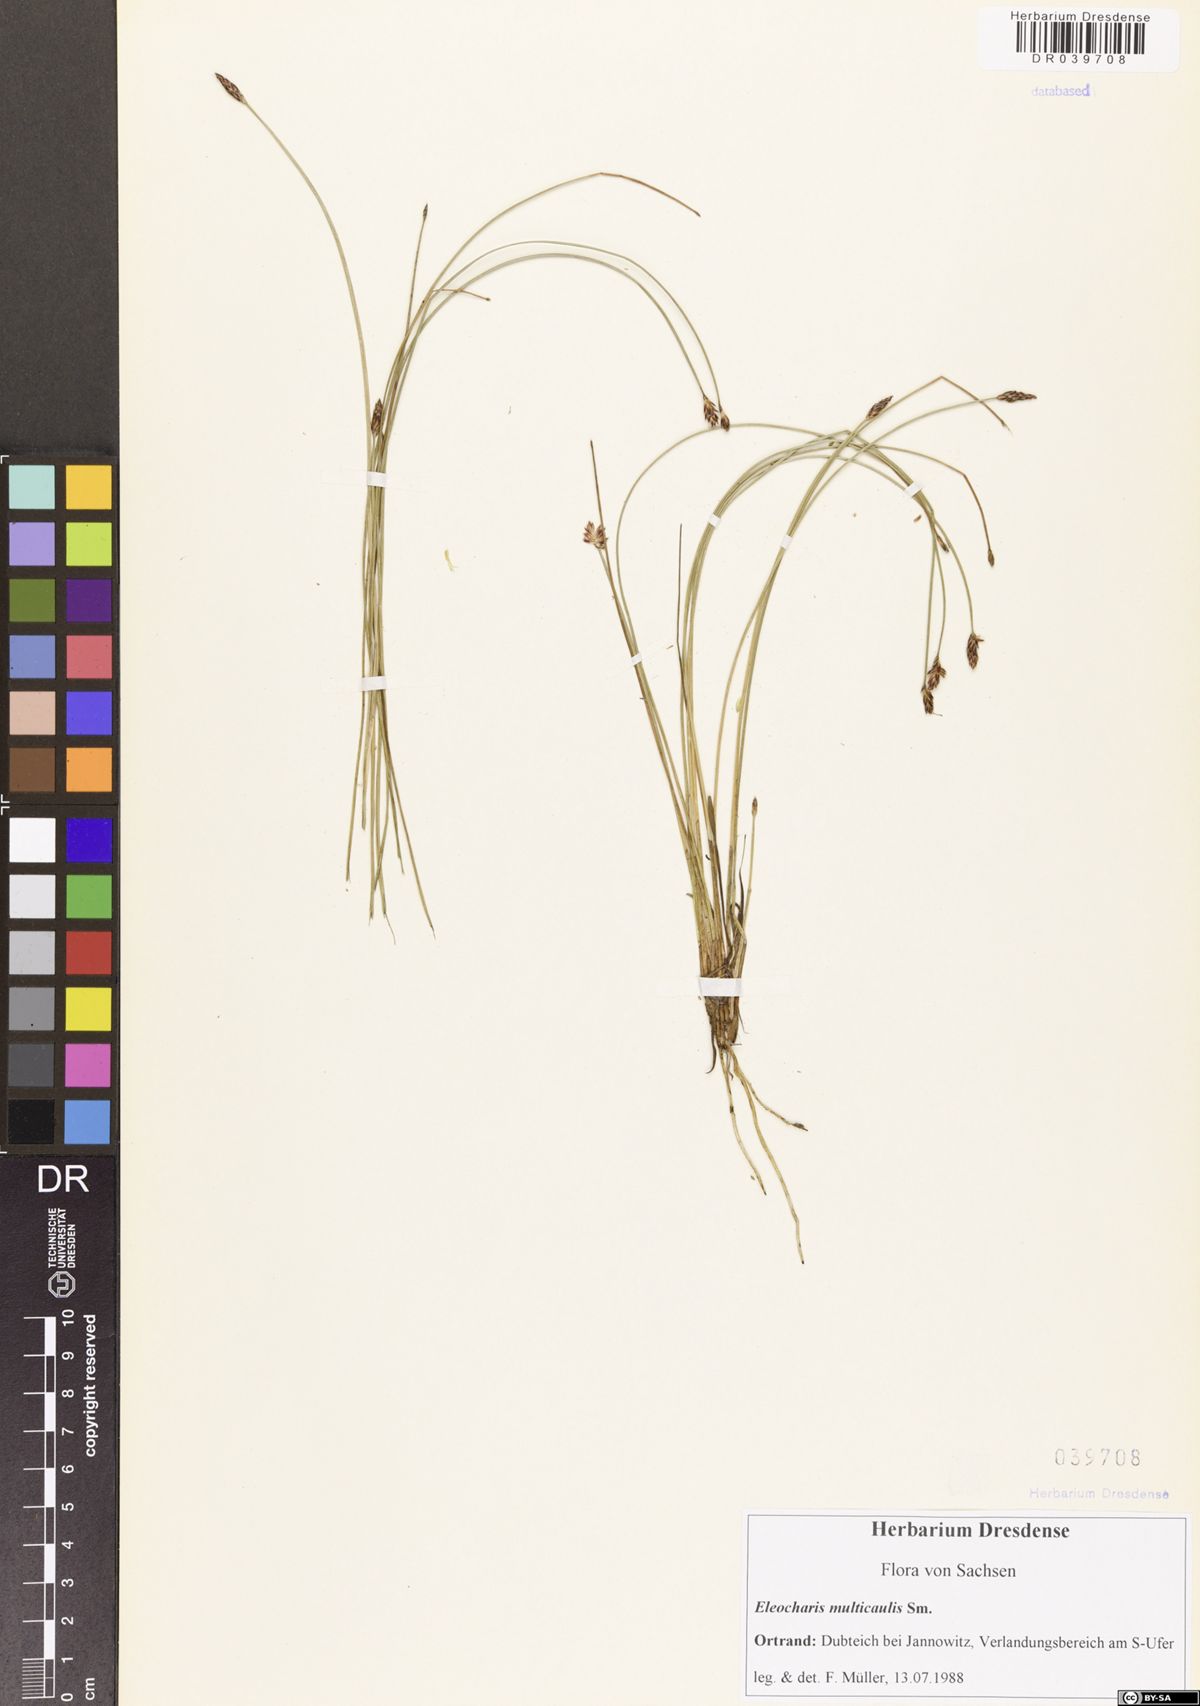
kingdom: Plantae
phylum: Tracheophyta
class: Liliopsida
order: Poales
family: Cyperaceae
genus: Eleocharis
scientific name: Eleocharis multicaulis
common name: Many-stalked spike-rush
